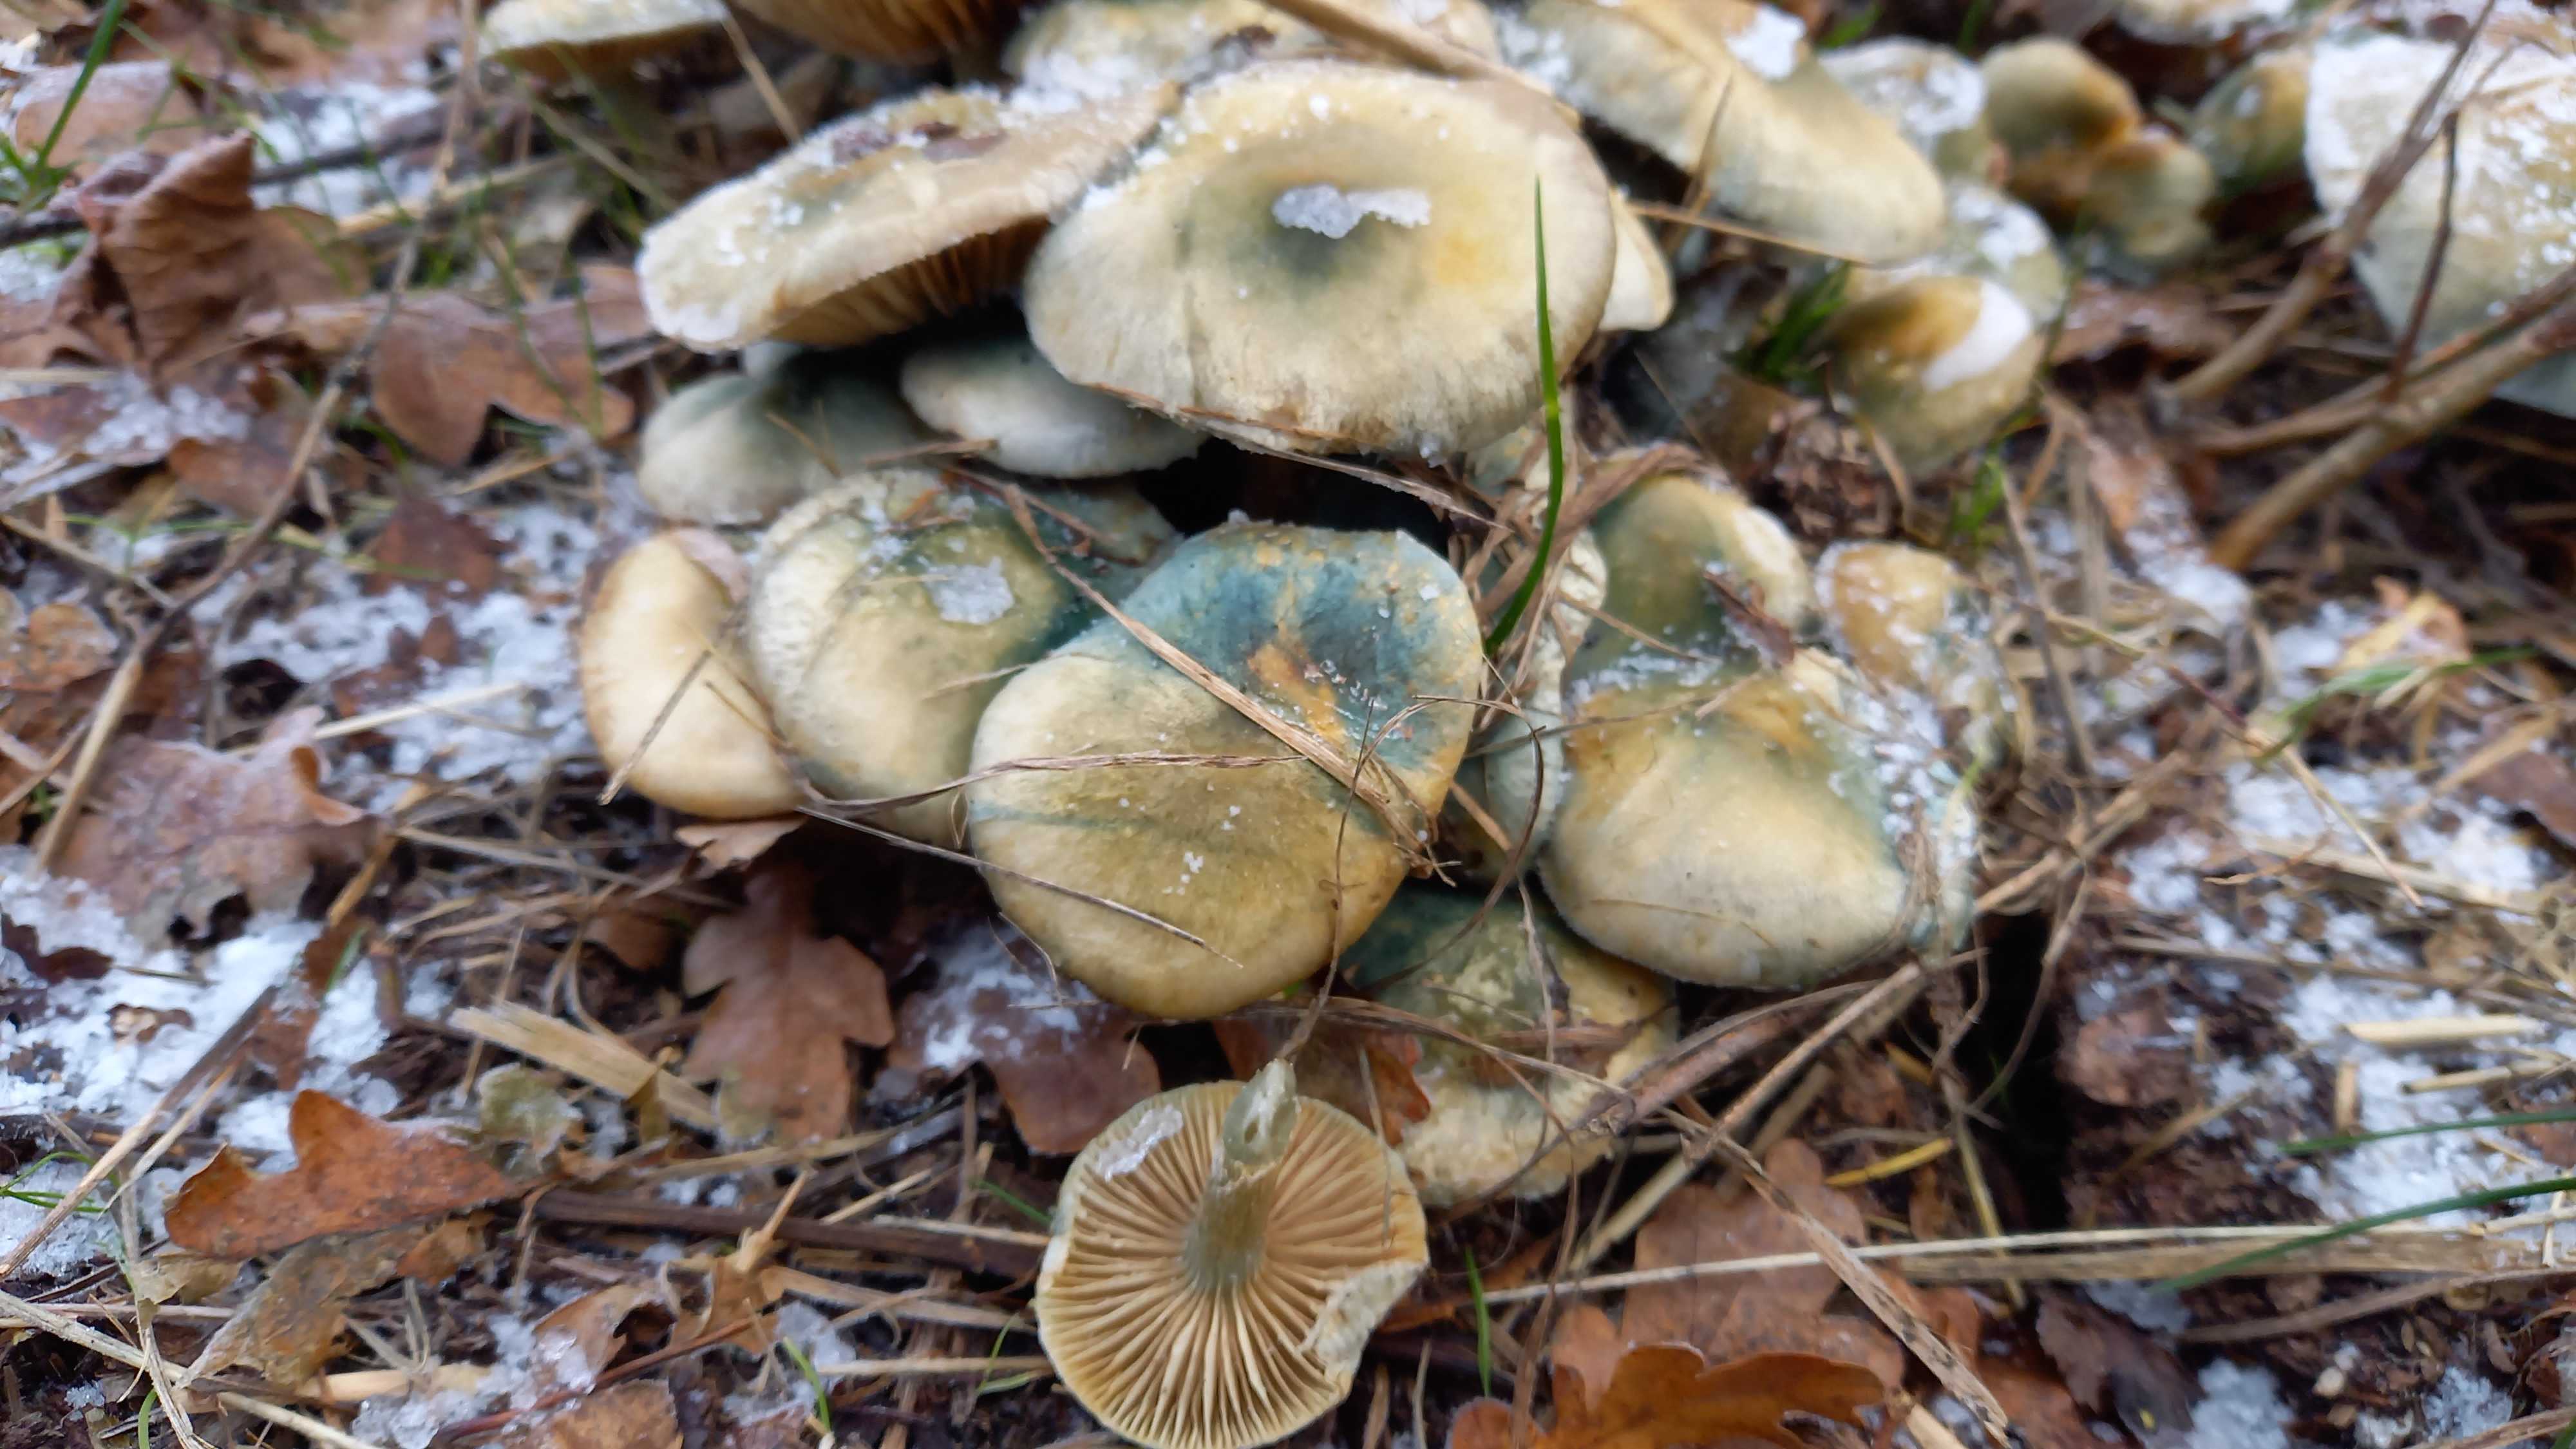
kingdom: Fungi
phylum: Basidiomycota
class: Agaricomycetes
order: Agaricales
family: Strophariaceae
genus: Stropharia
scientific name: Stropharia cyanea
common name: blågrøn bredblad
